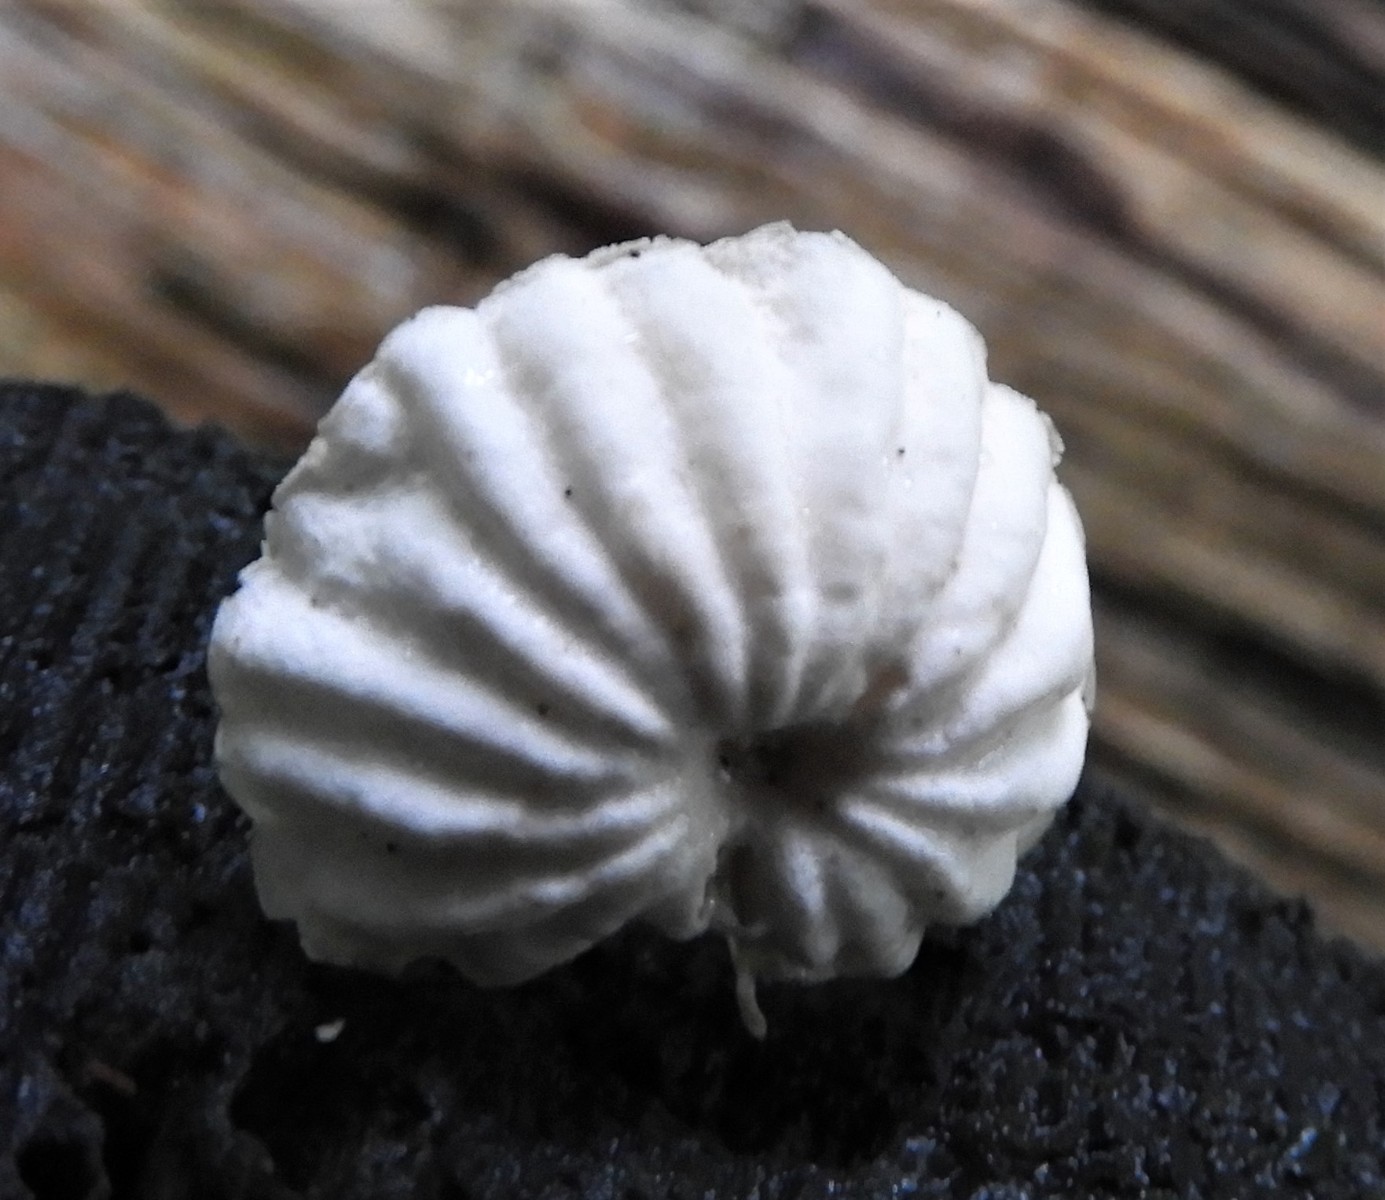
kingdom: Fungi
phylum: Basidiomycota
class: Agaricomycetes
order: Agaricales
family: Marasmiaceae
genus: Marasmius
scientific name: Marasmius rotula
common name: hjul-bruskhat
